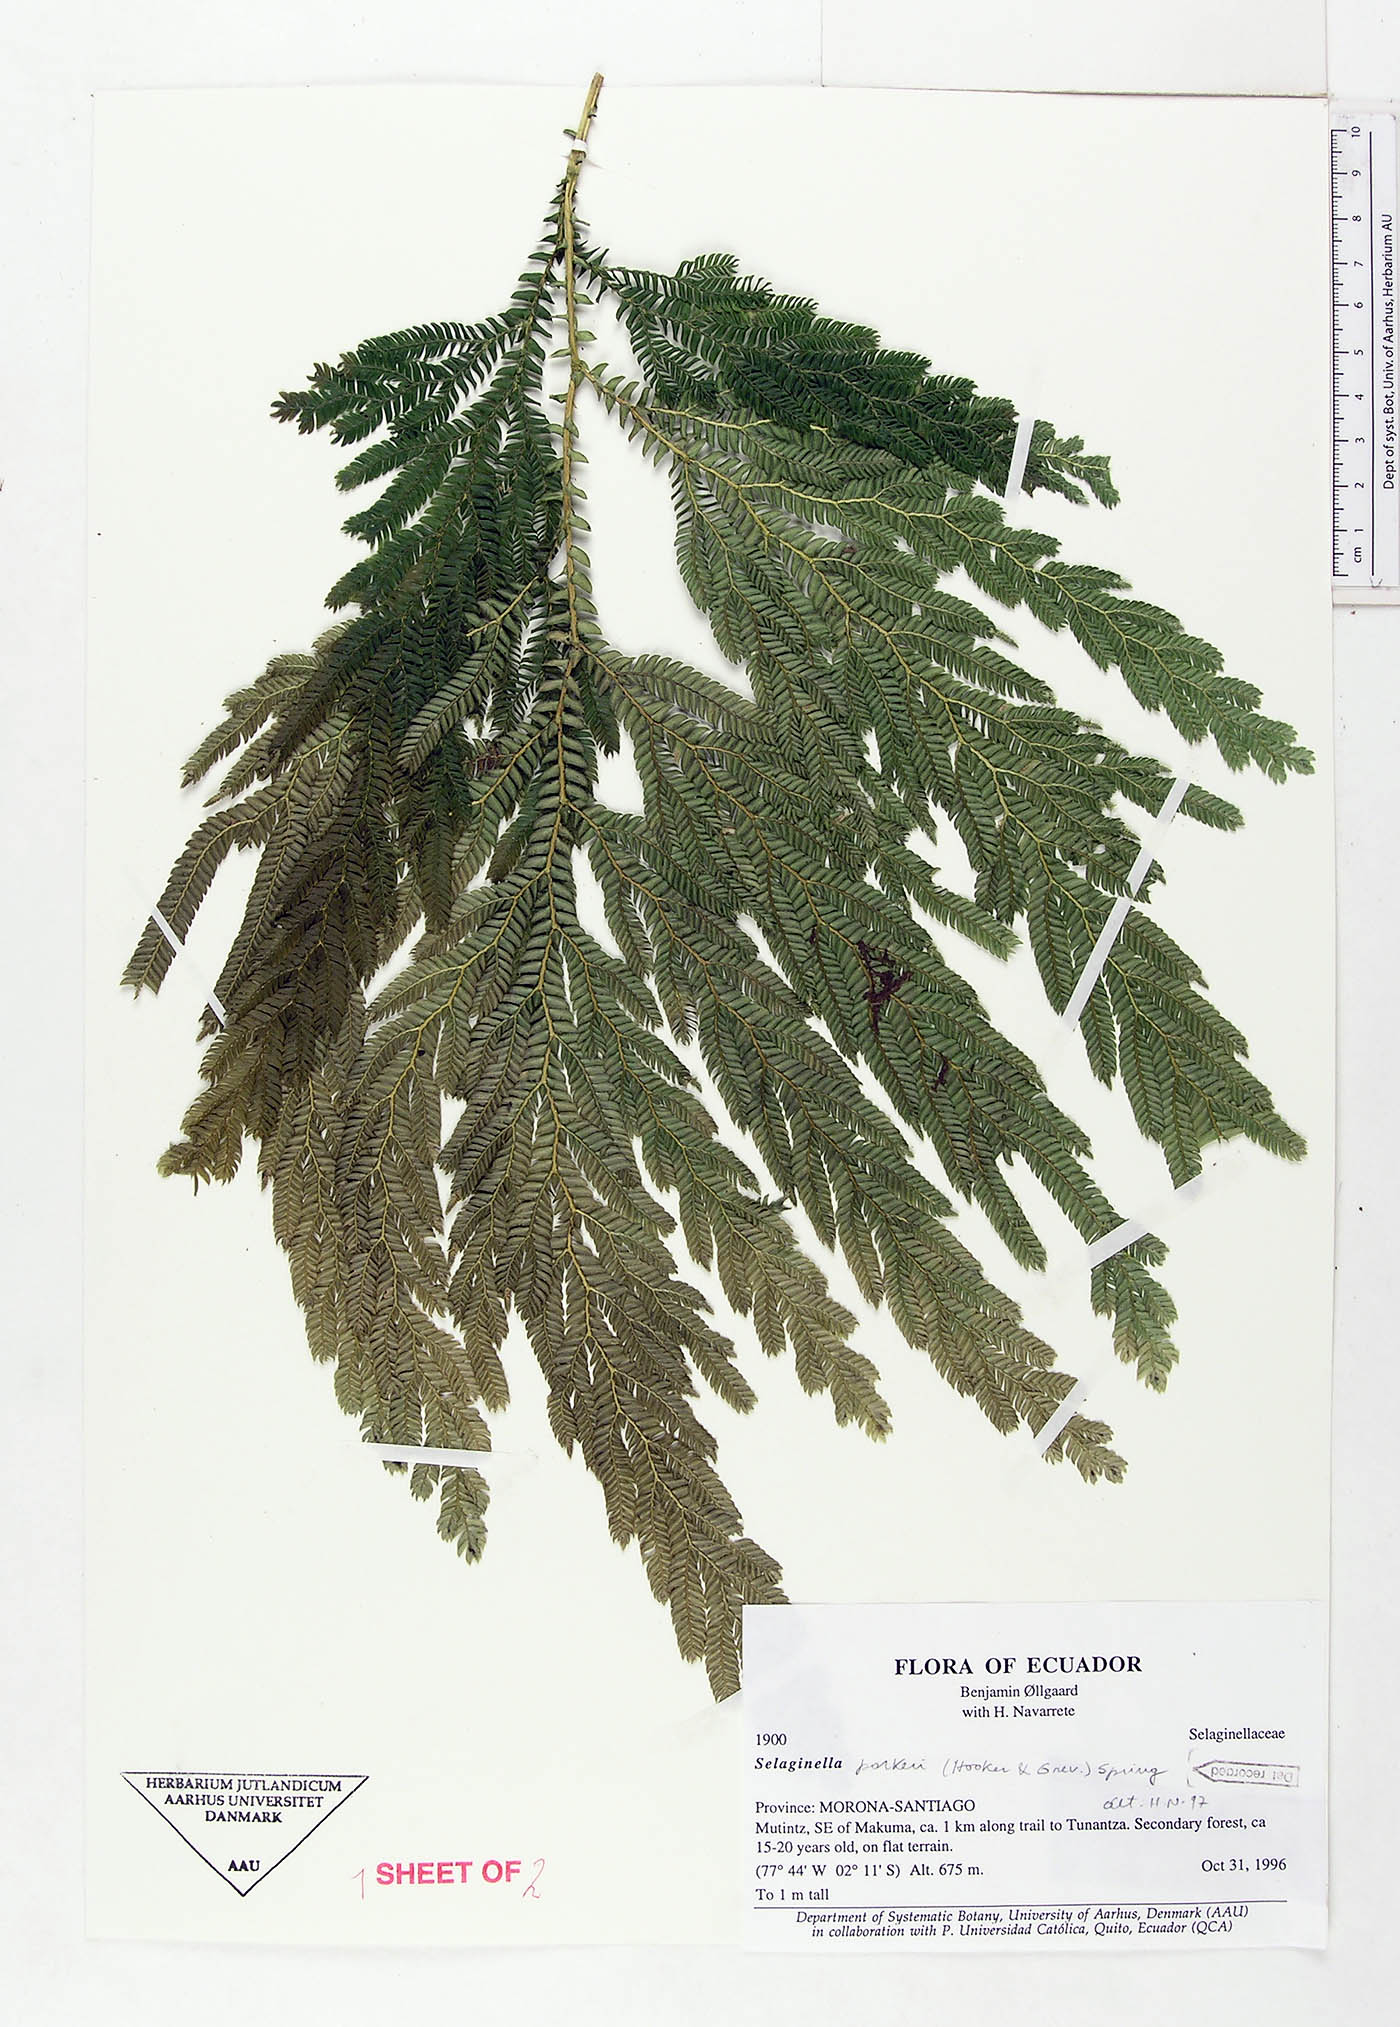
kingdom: Plantae
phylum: Tracheophyta
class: Lycopodiopsida
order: Selaginellales
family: Selaginellaceae
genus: Selaginella
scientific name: Selaginella parkeri
